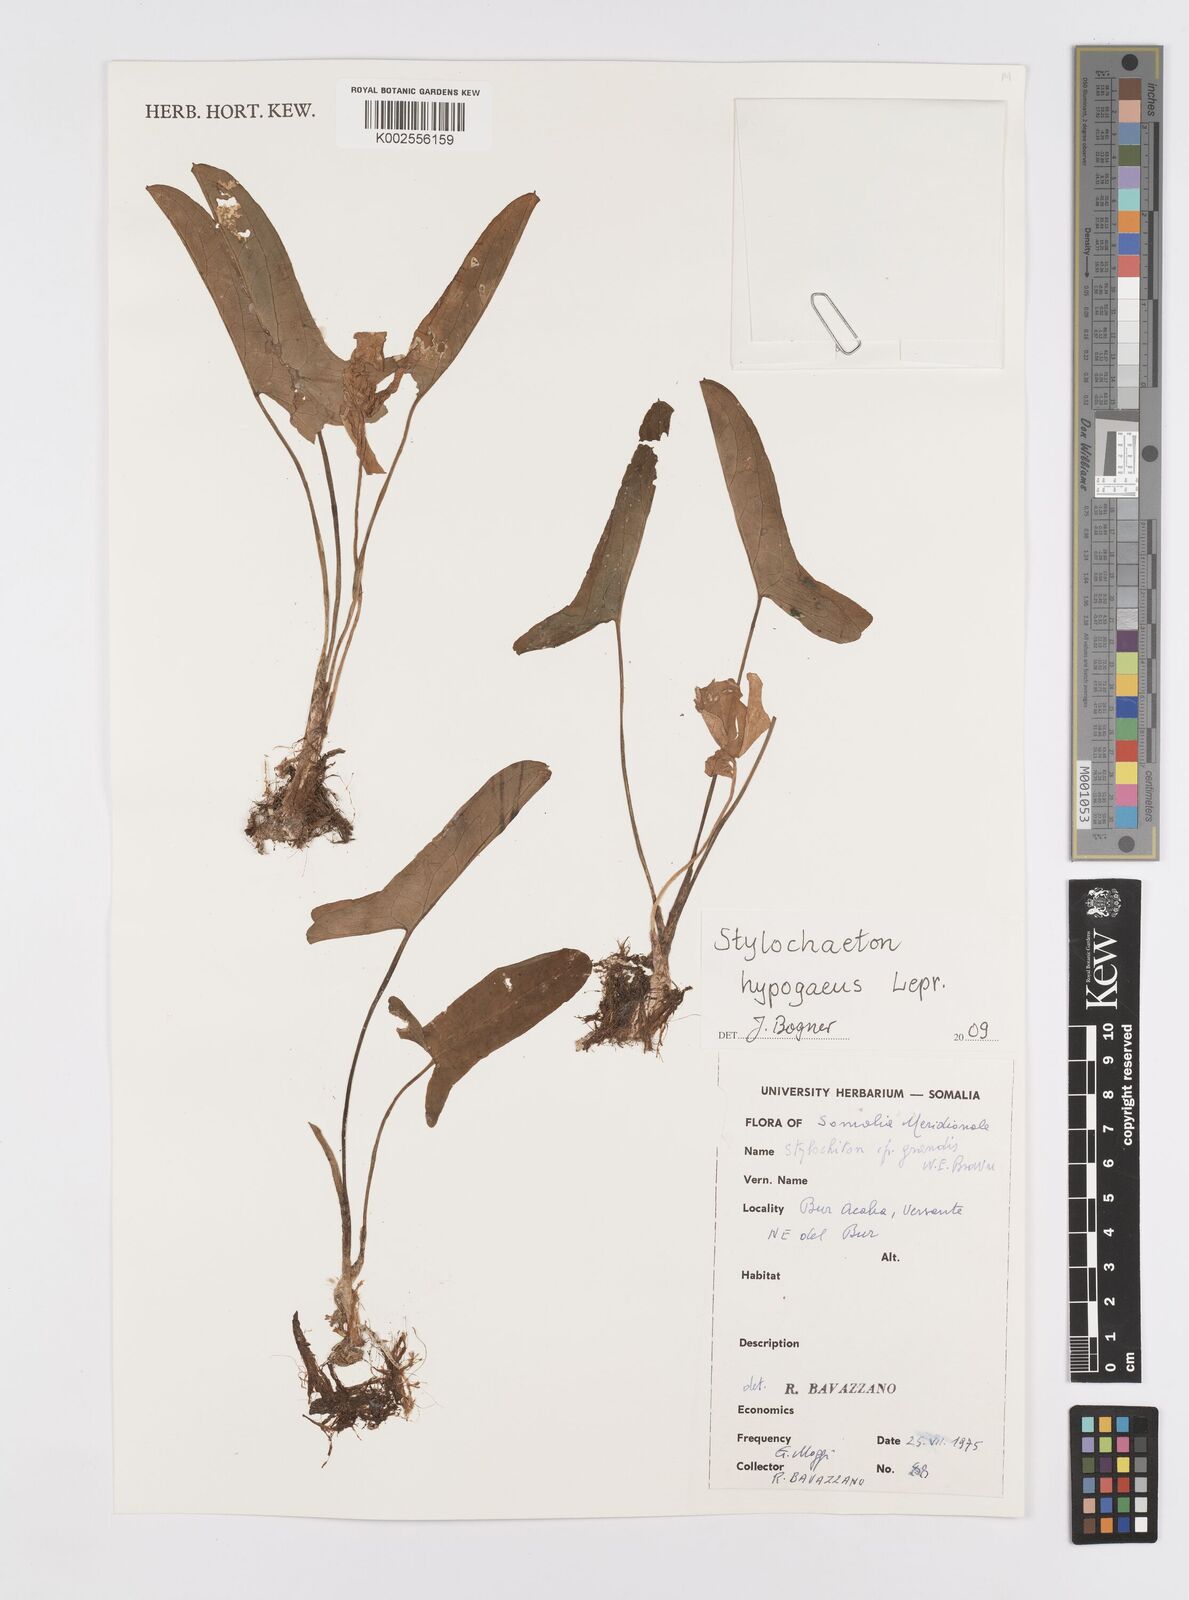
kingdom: Plantae
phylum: Tracheophyta
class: Liliopsida
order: Alismatales
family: Araceae
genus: Stylochaeton
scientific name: Stylochaeton hypogeum
